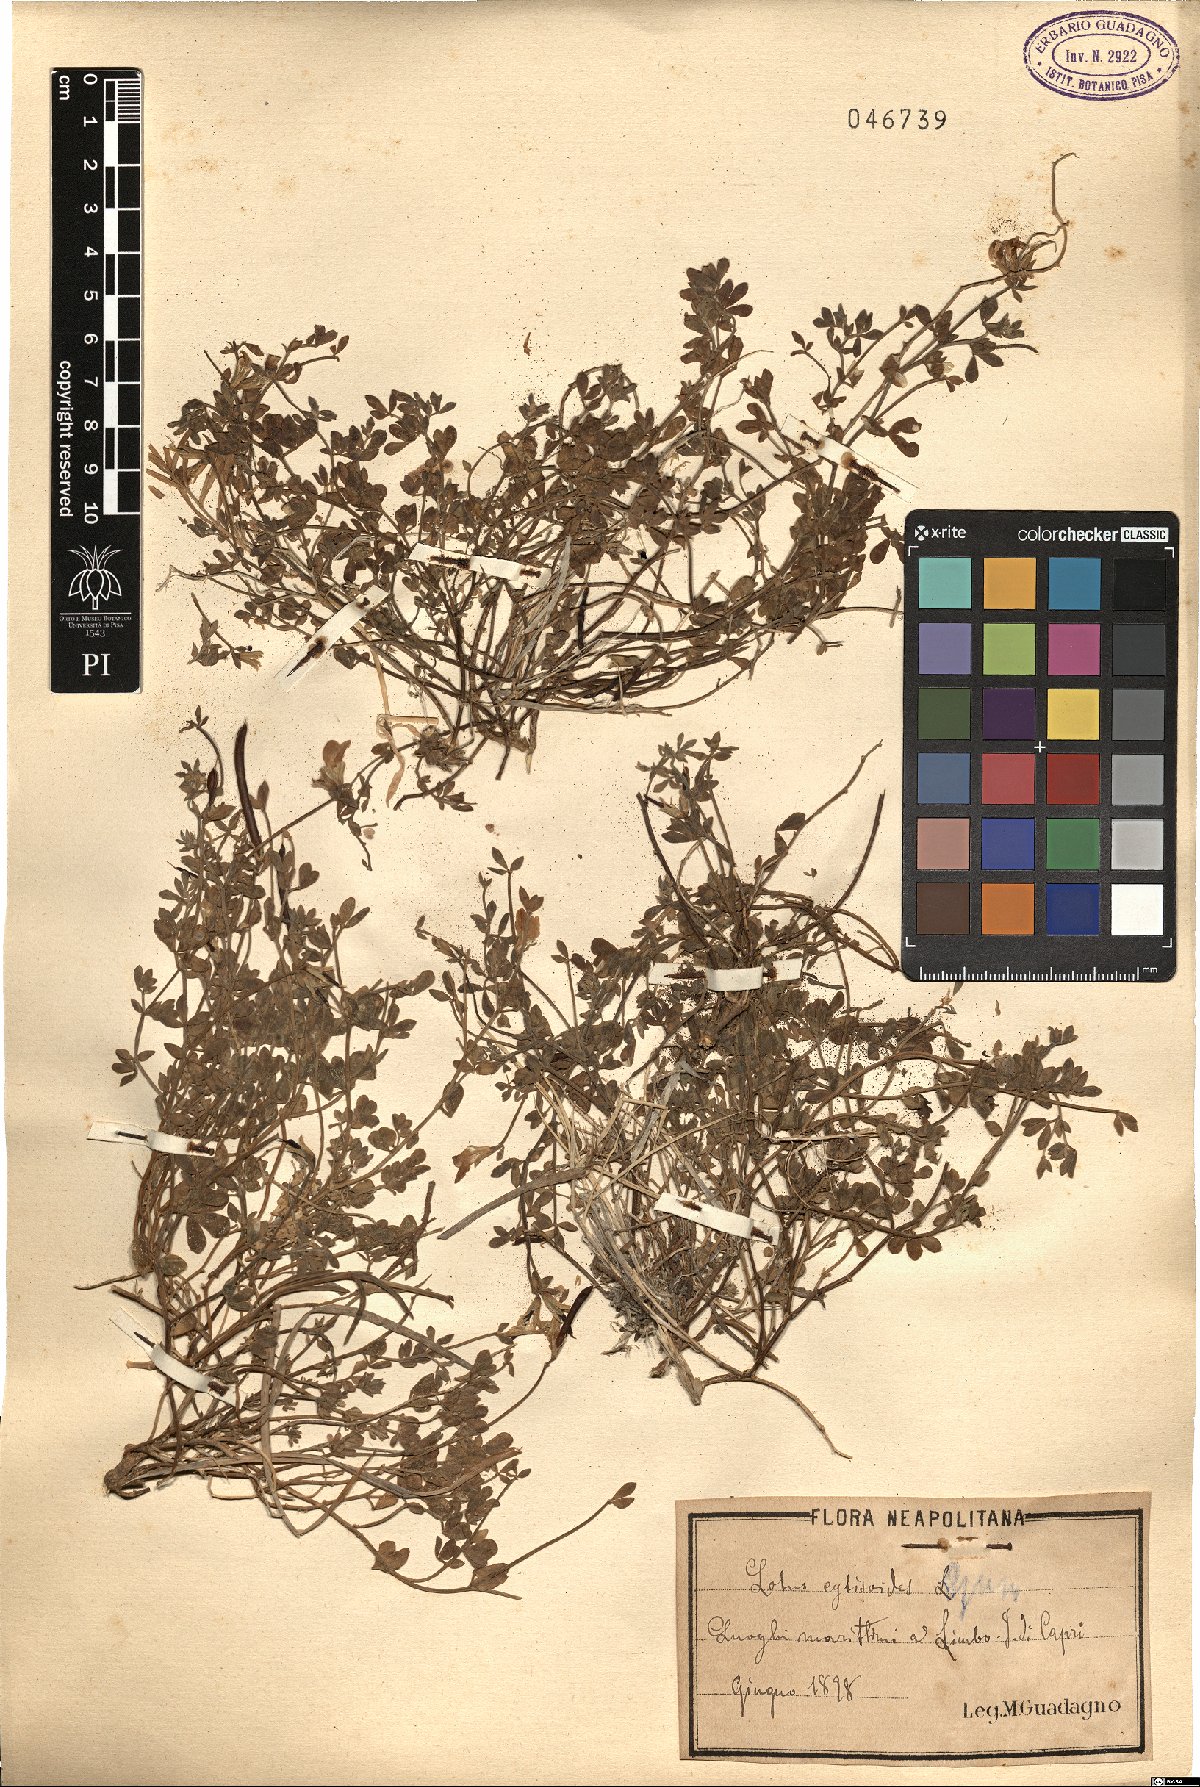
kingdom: Plantae
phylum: Tracheophyta
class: Magnoliopsida
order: Fabales
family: Fabaceae
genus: Lotus
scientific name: Lotus cytisoides
